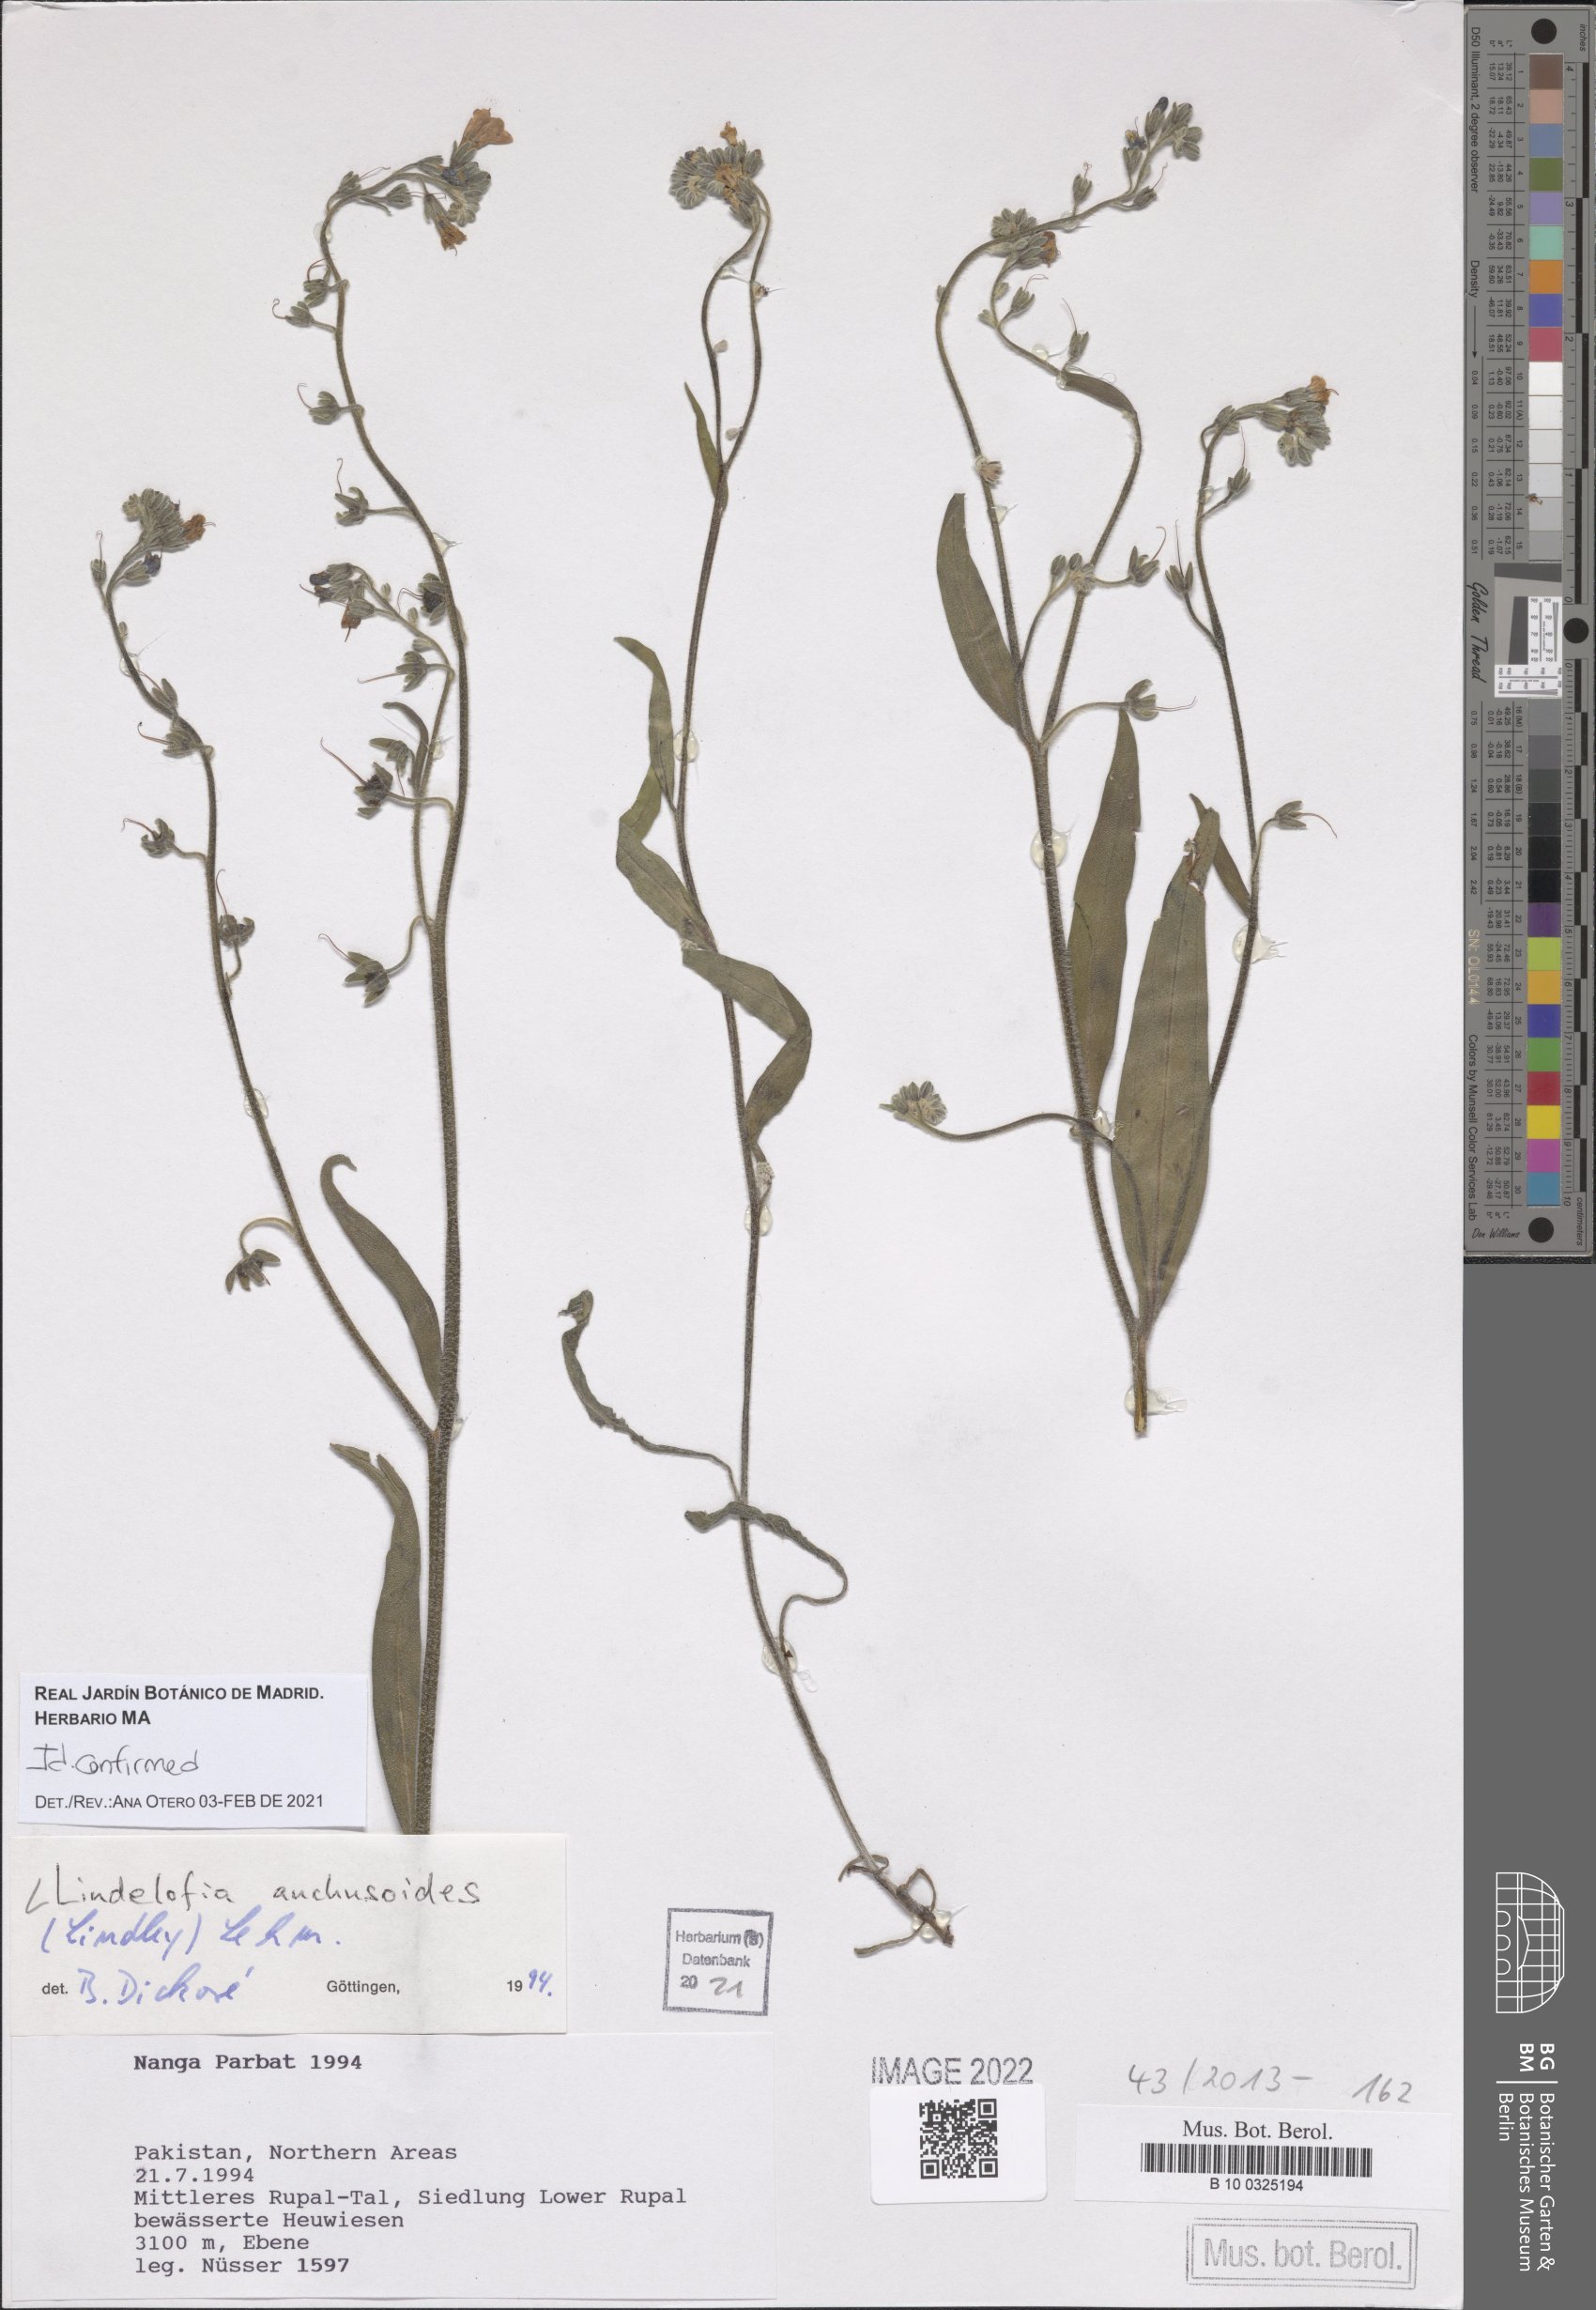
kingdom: Plantae
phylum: Tracheophyta
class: Magnoliopsida
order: Boraginales
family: Boraginaceae
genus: Lindelofia
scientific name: Lindelofia anchusoides
